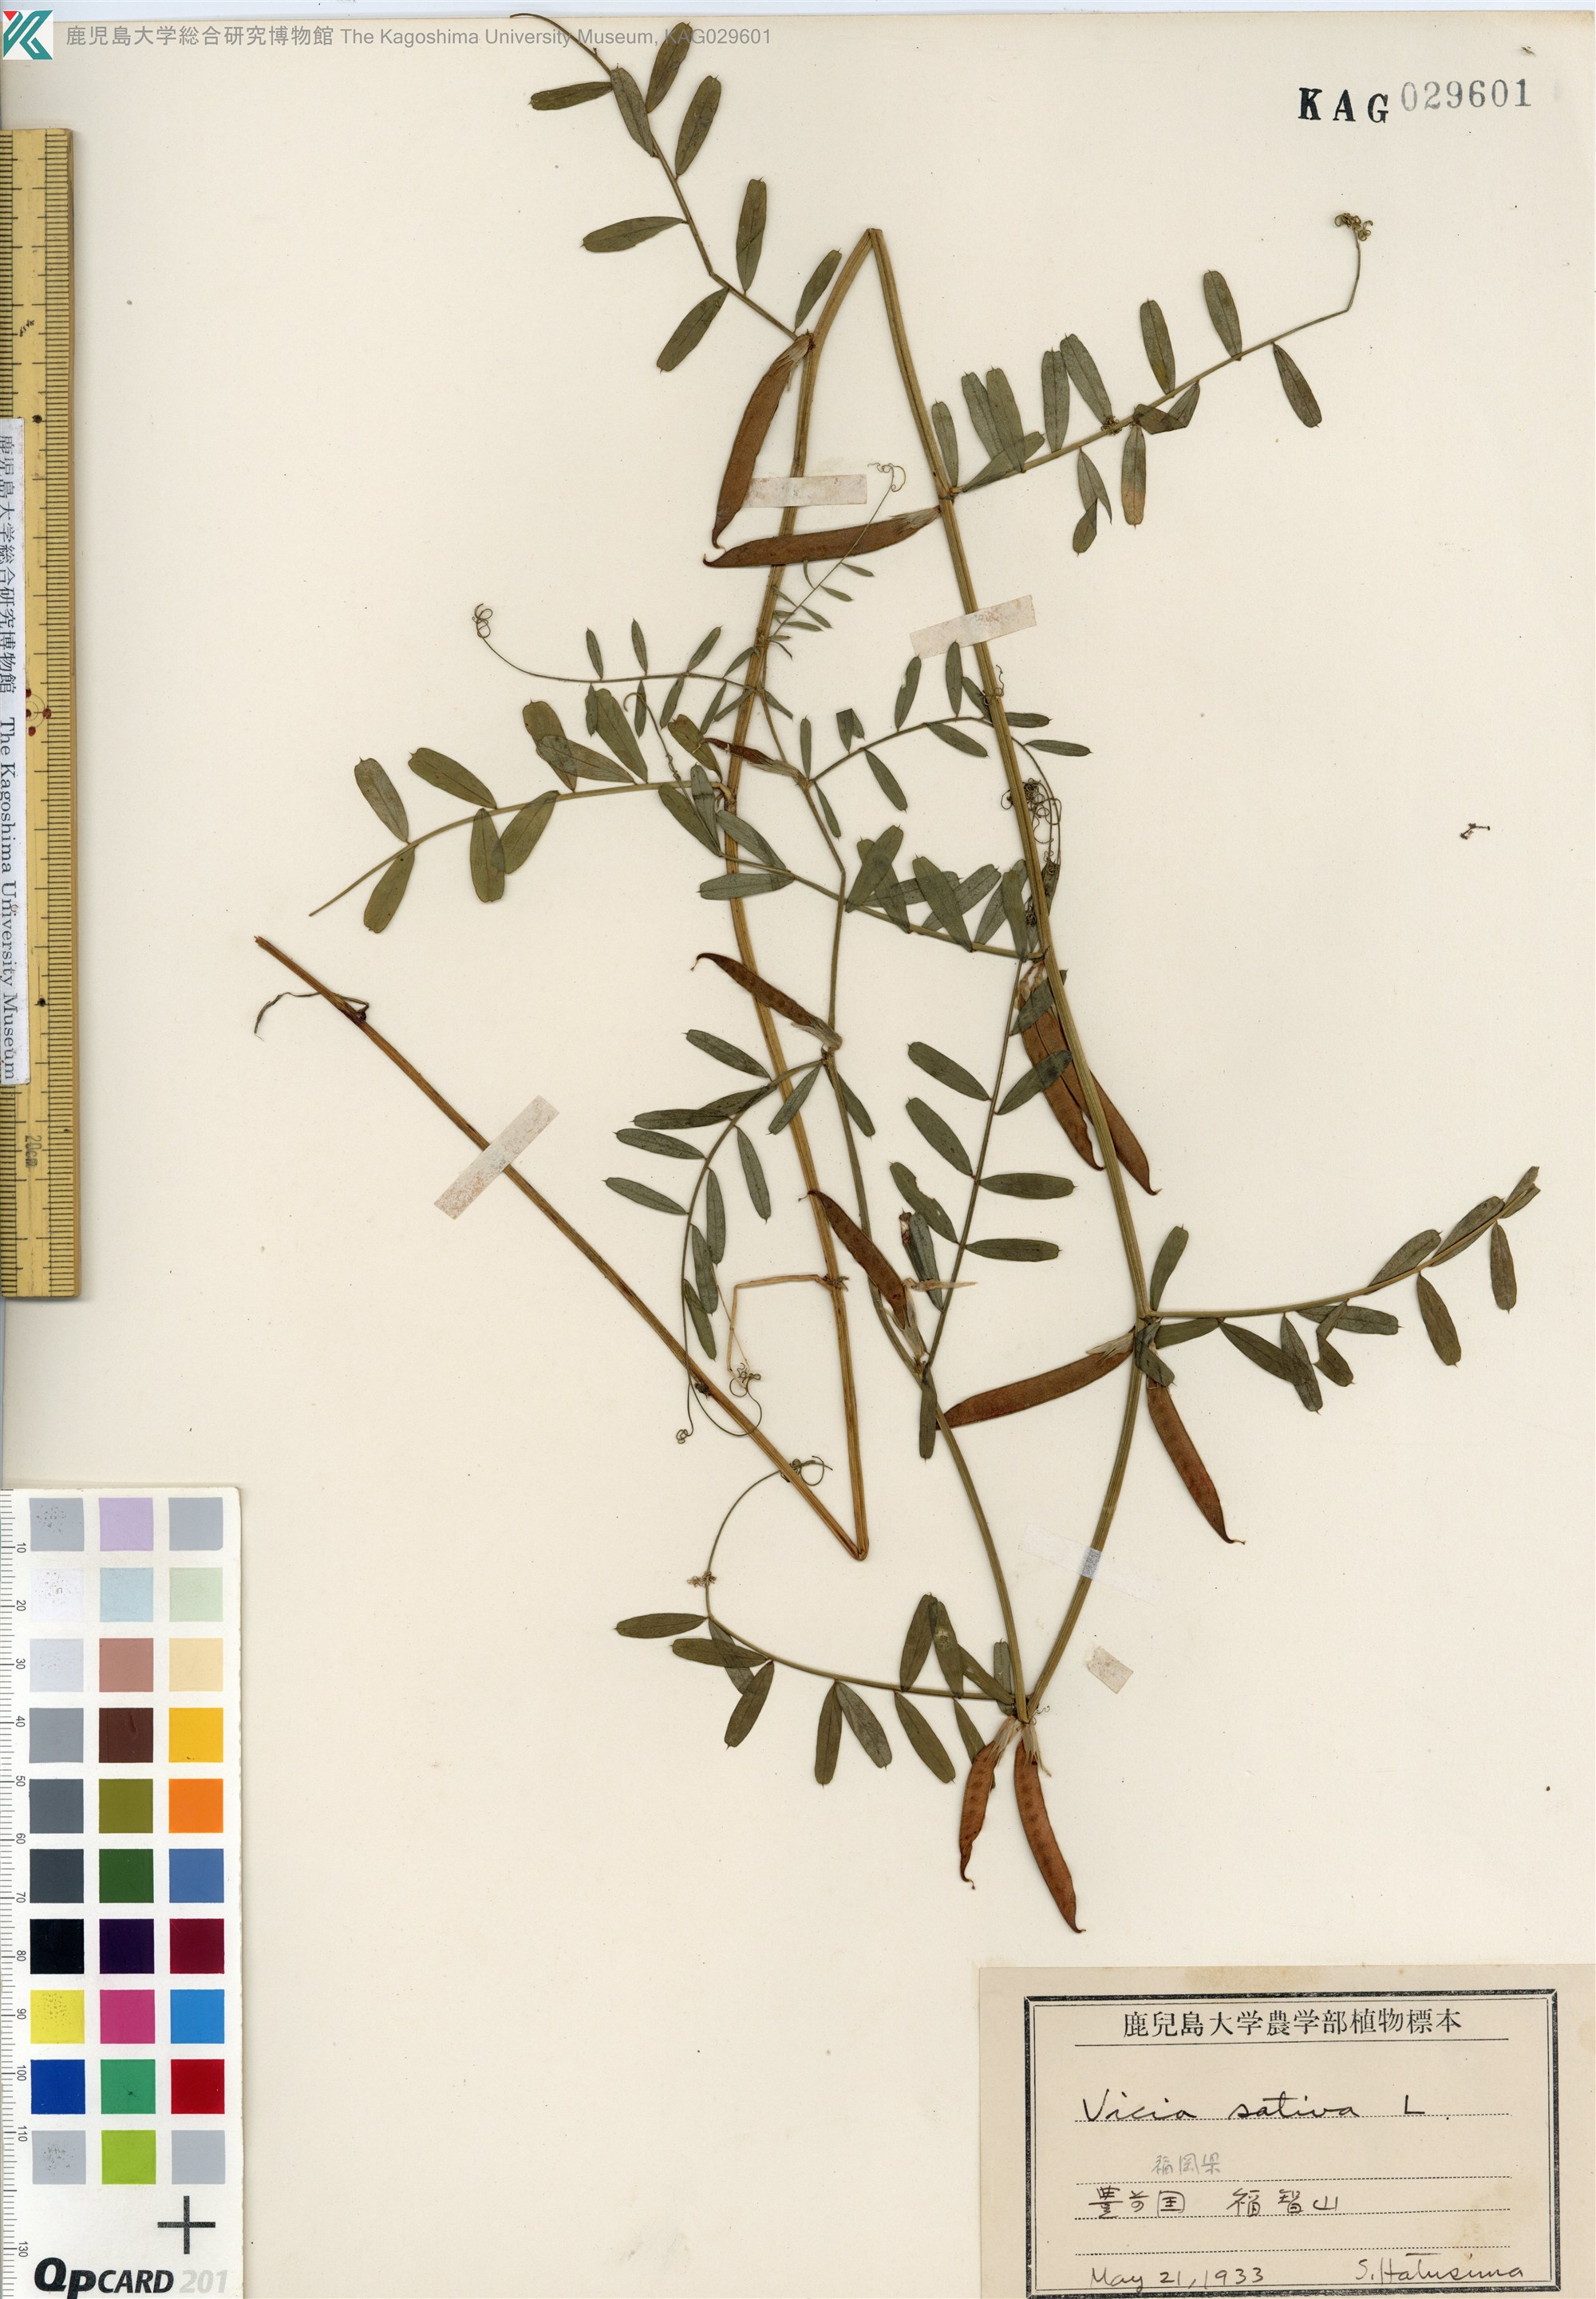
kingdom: Plantae
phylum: Tracheophyta
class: Magnoliopsida
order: Fabales
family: Fabaceae
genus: Vicia
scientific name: Vicia sativa
